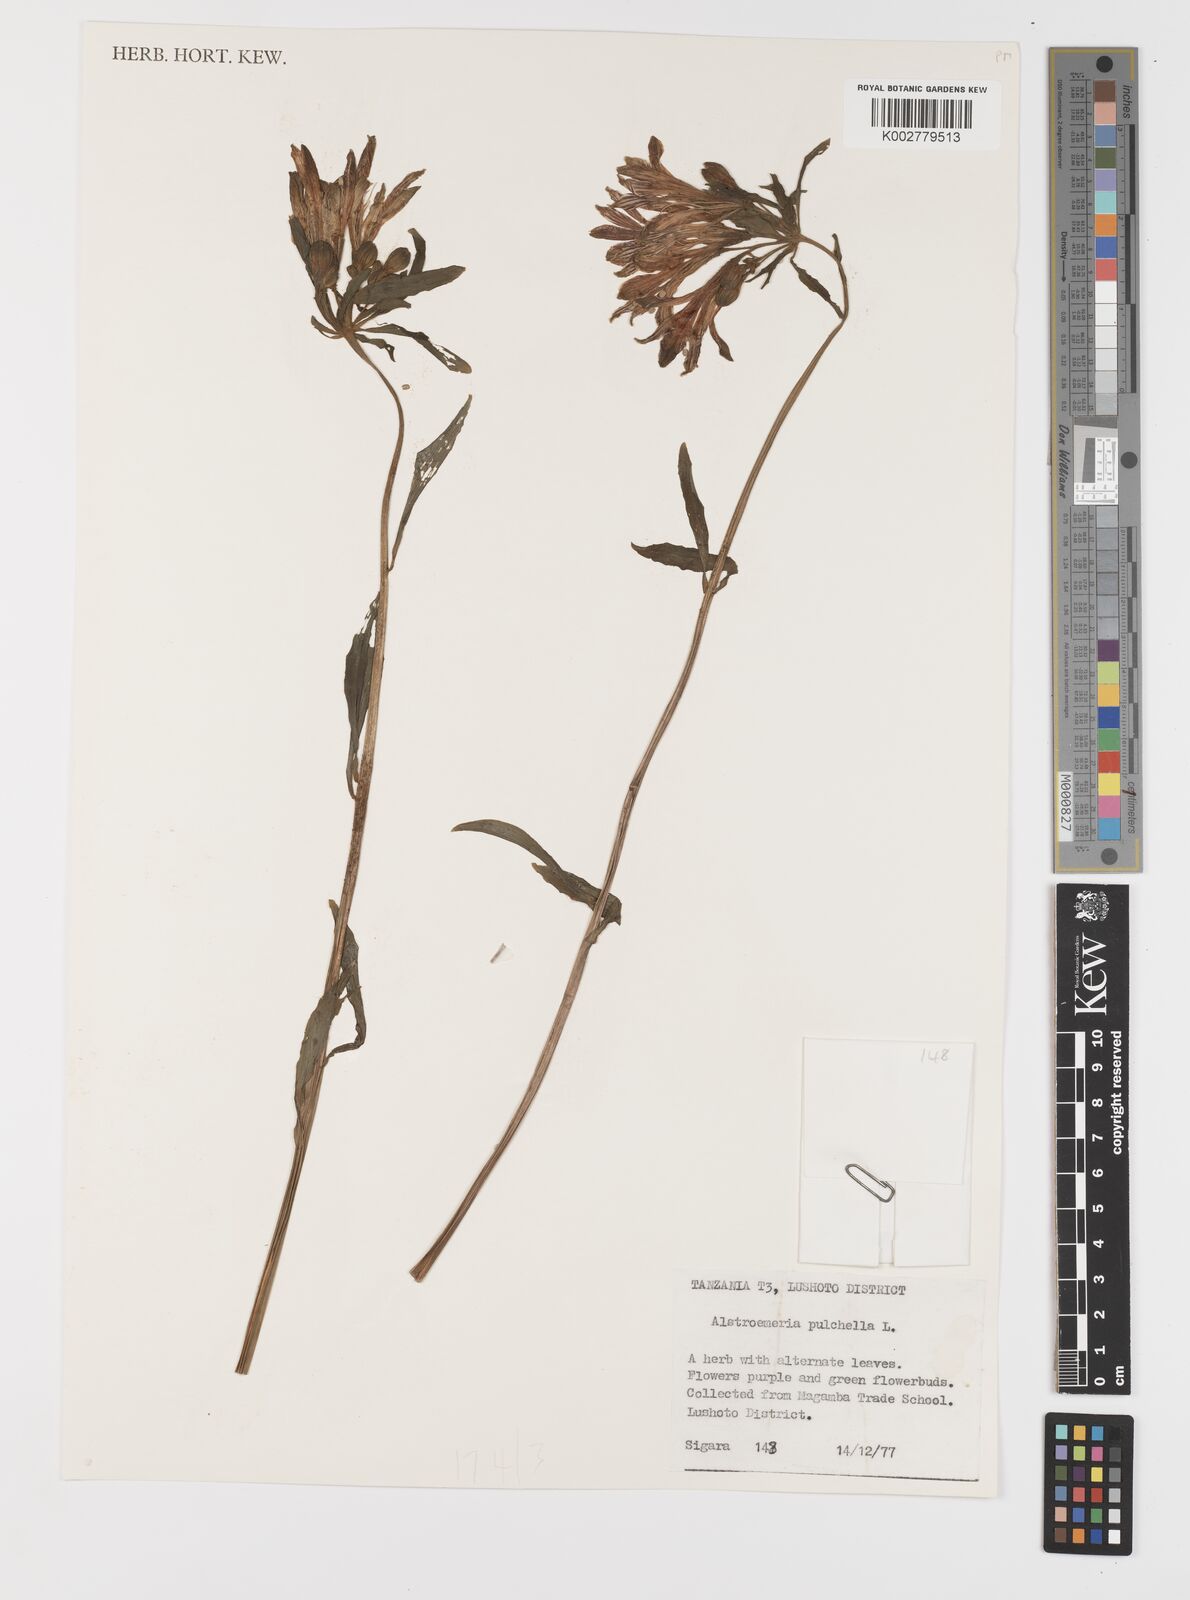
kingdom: Plantae
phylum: Tracheophyta
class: Liliopsida
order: Liliales
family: Alstroemeriaceae
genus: Alstroemeria
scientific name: Alstroemeria pelegrina
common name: Peruvian-lily
